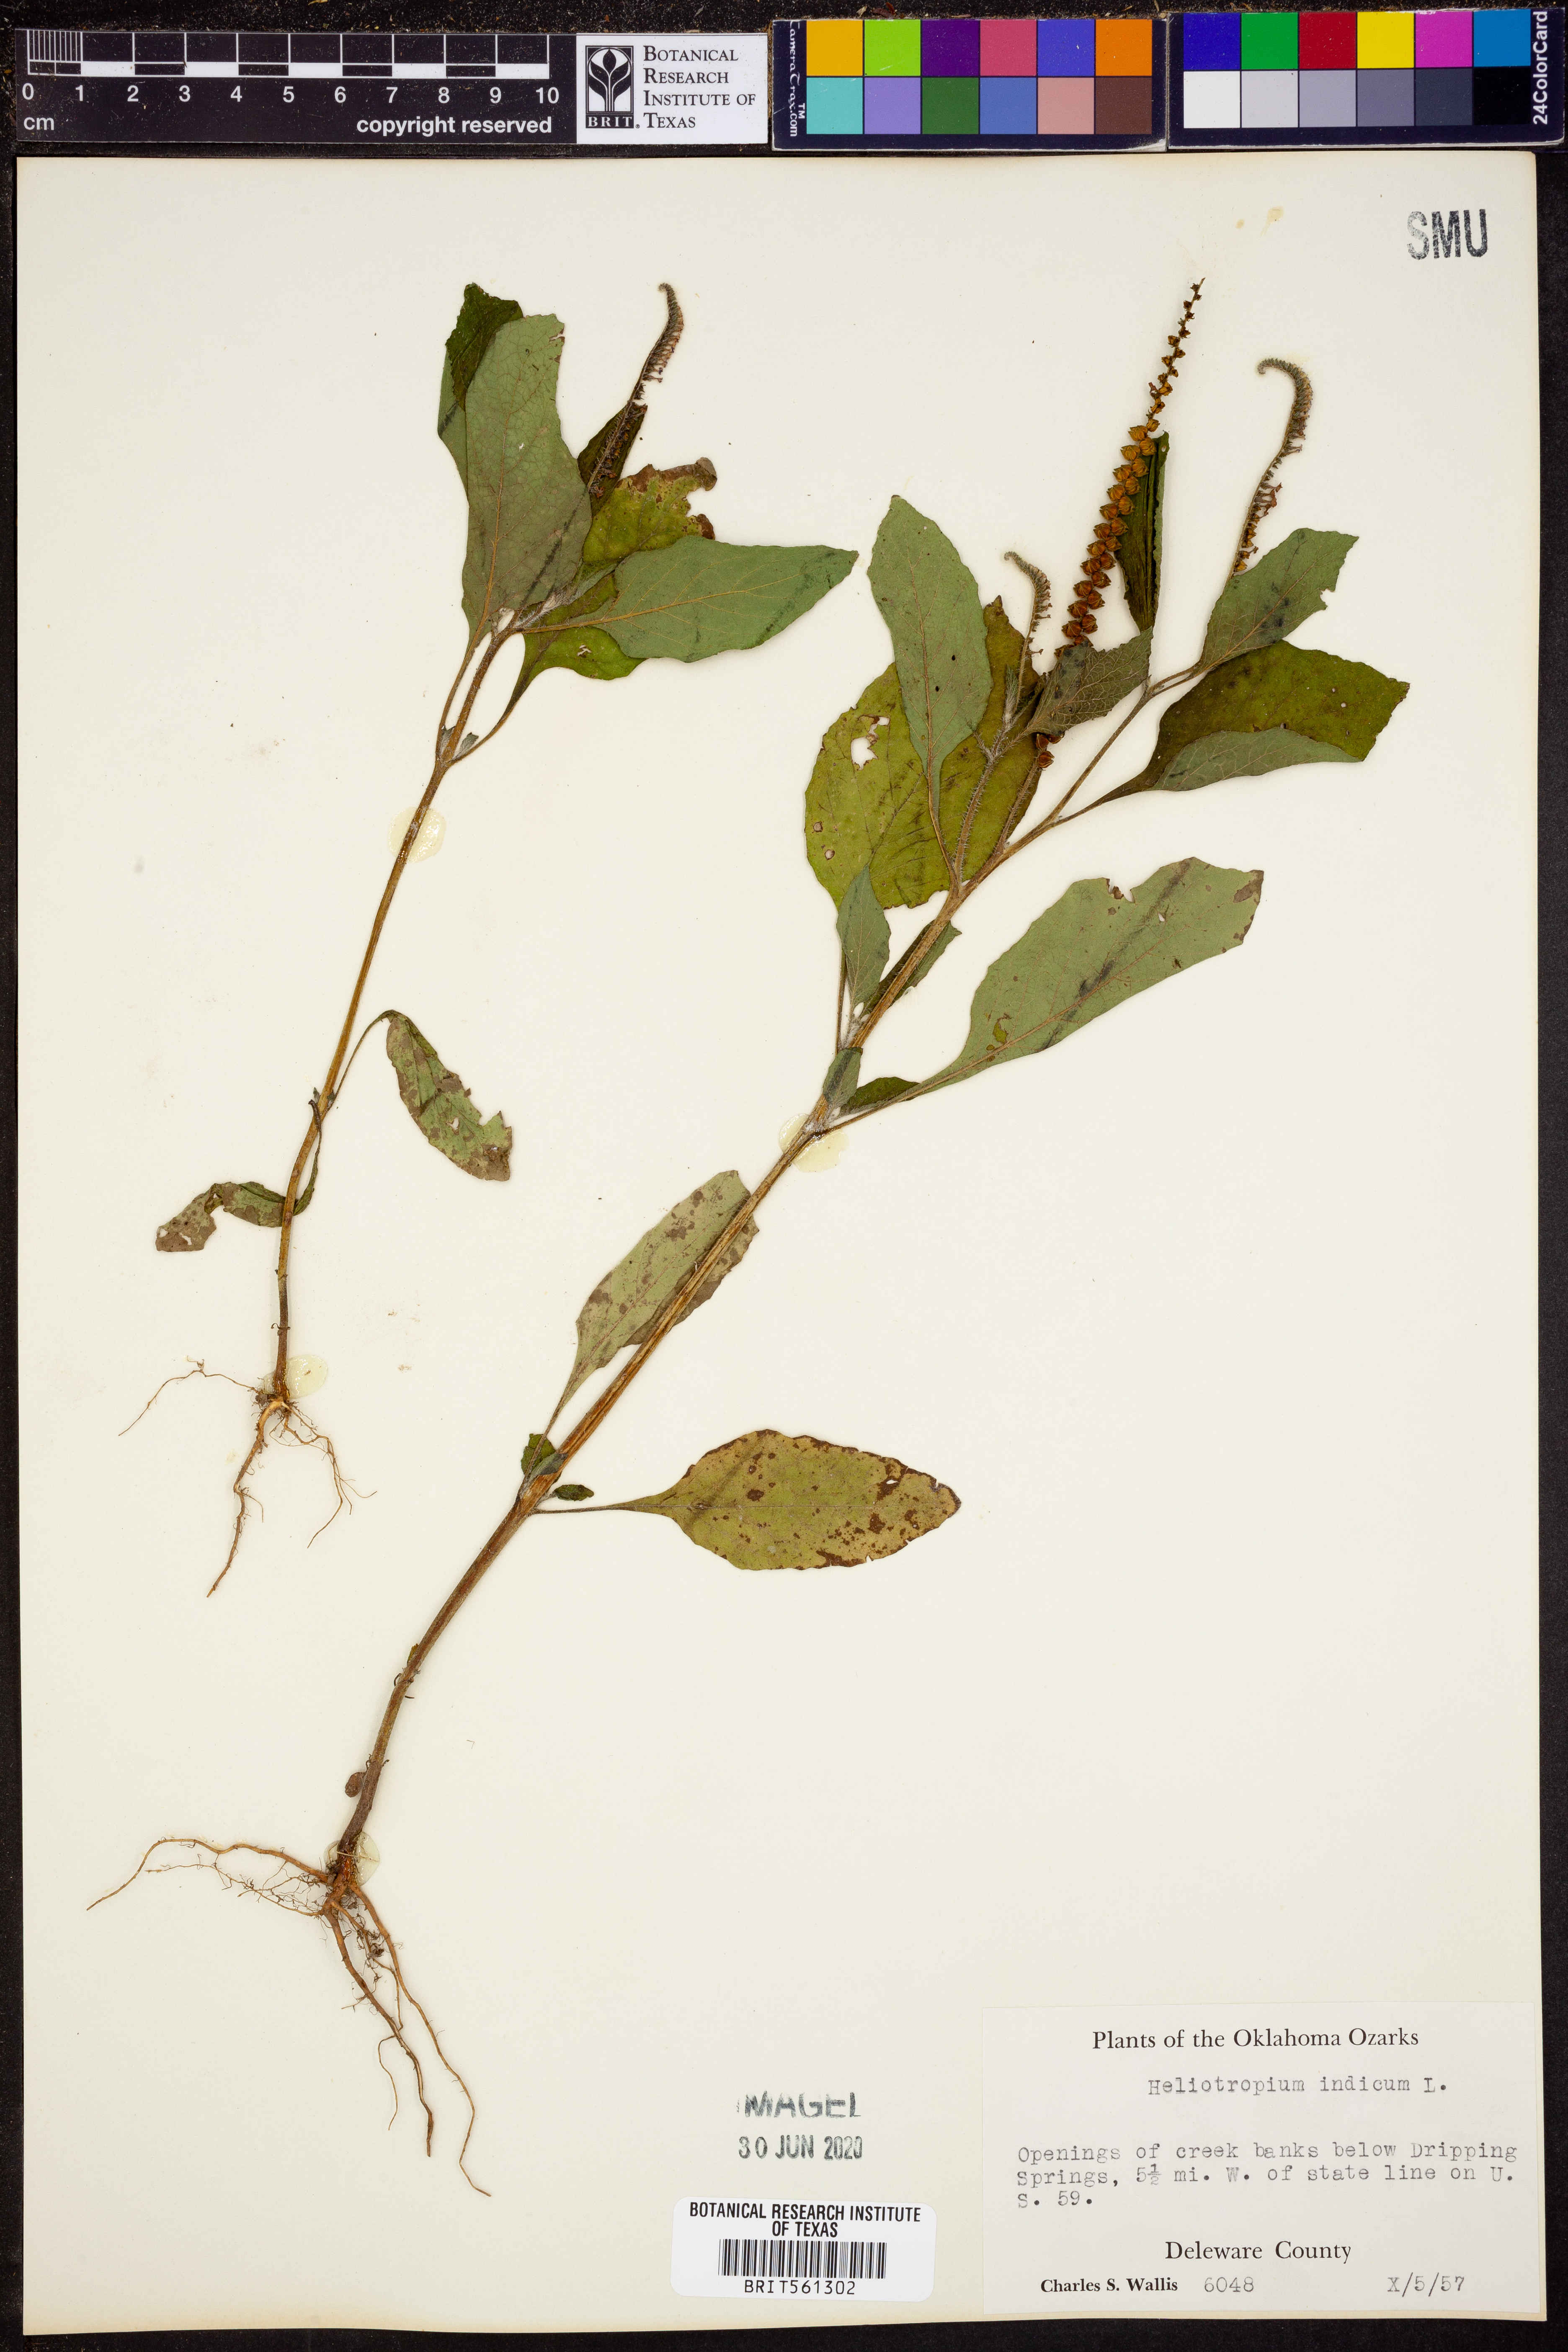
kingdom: Plantae
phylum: Tracheophyta
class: Magnoliopsida
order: Boraginales
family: Heliotropiaceae
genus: Heliotropium
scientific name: Heliotropium indicum
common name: Indian heliotrope
